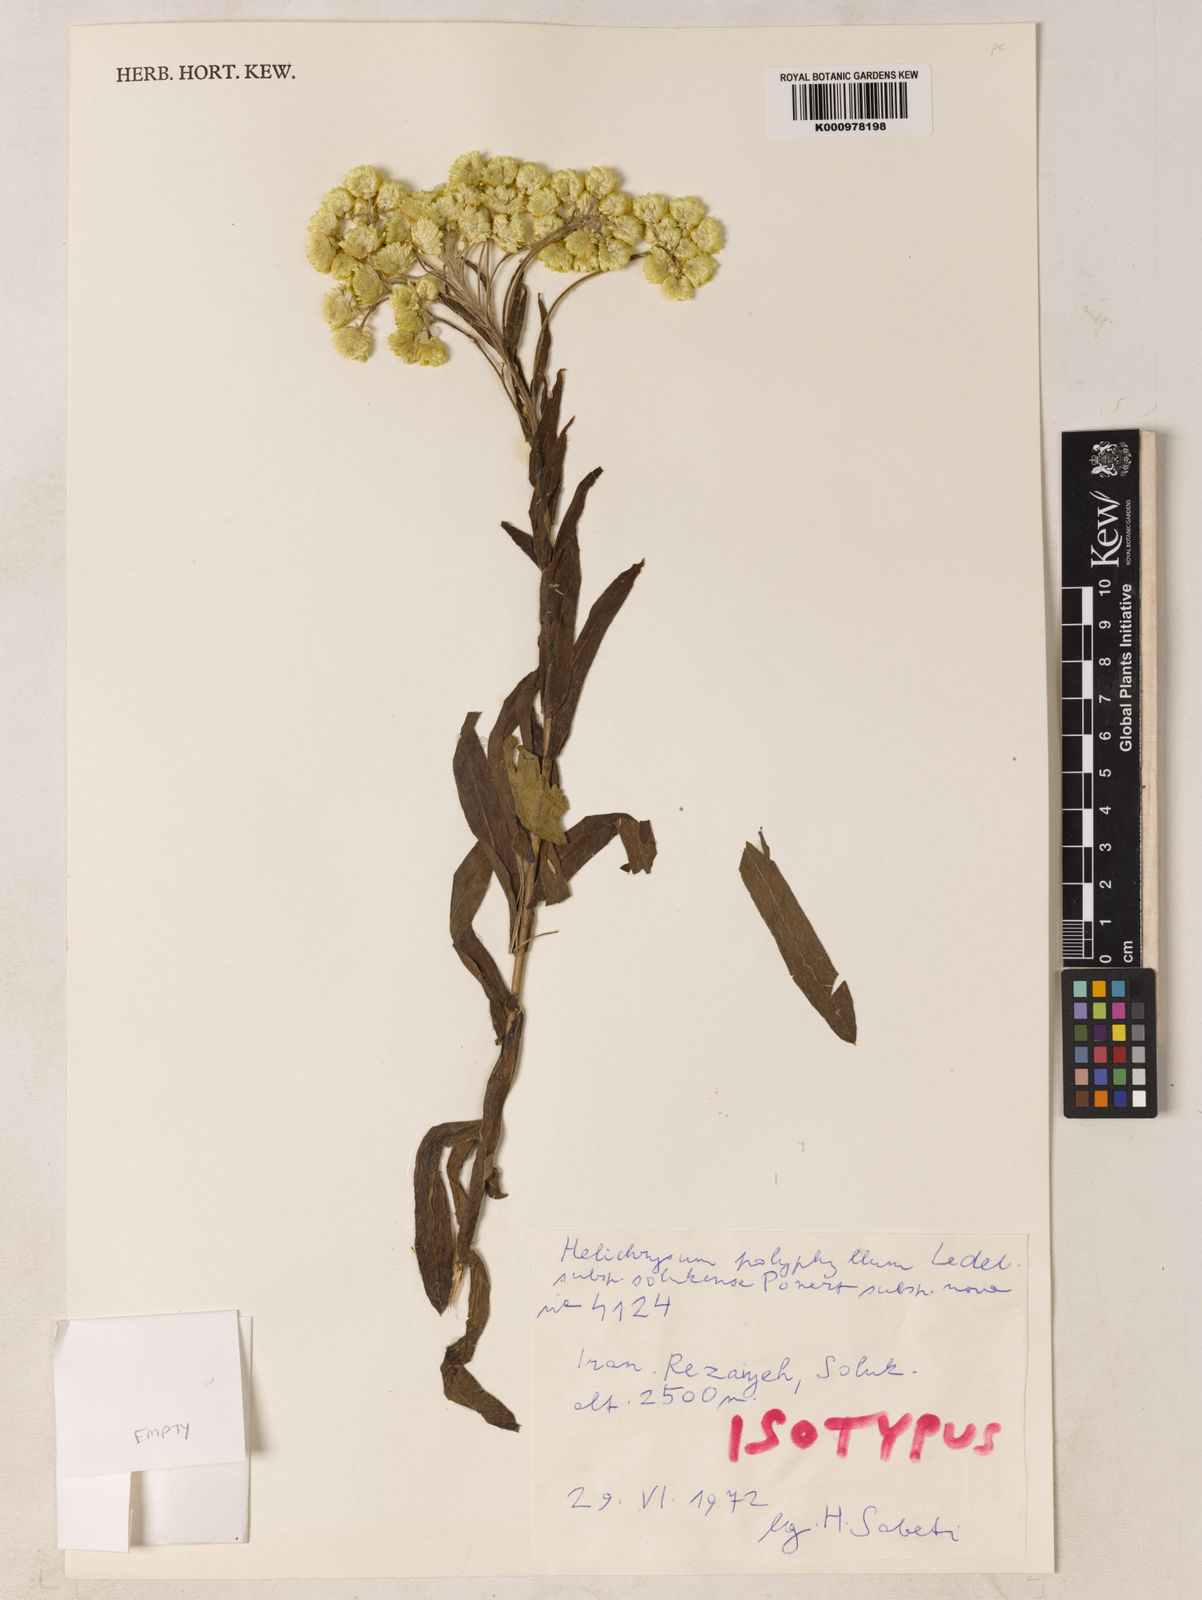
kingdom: Plantae
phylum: Tracheophyta
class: Magnoliopsida
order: Asterales
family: Asteraceae
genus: Helichrysum
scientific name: Helichrysum plicatum
